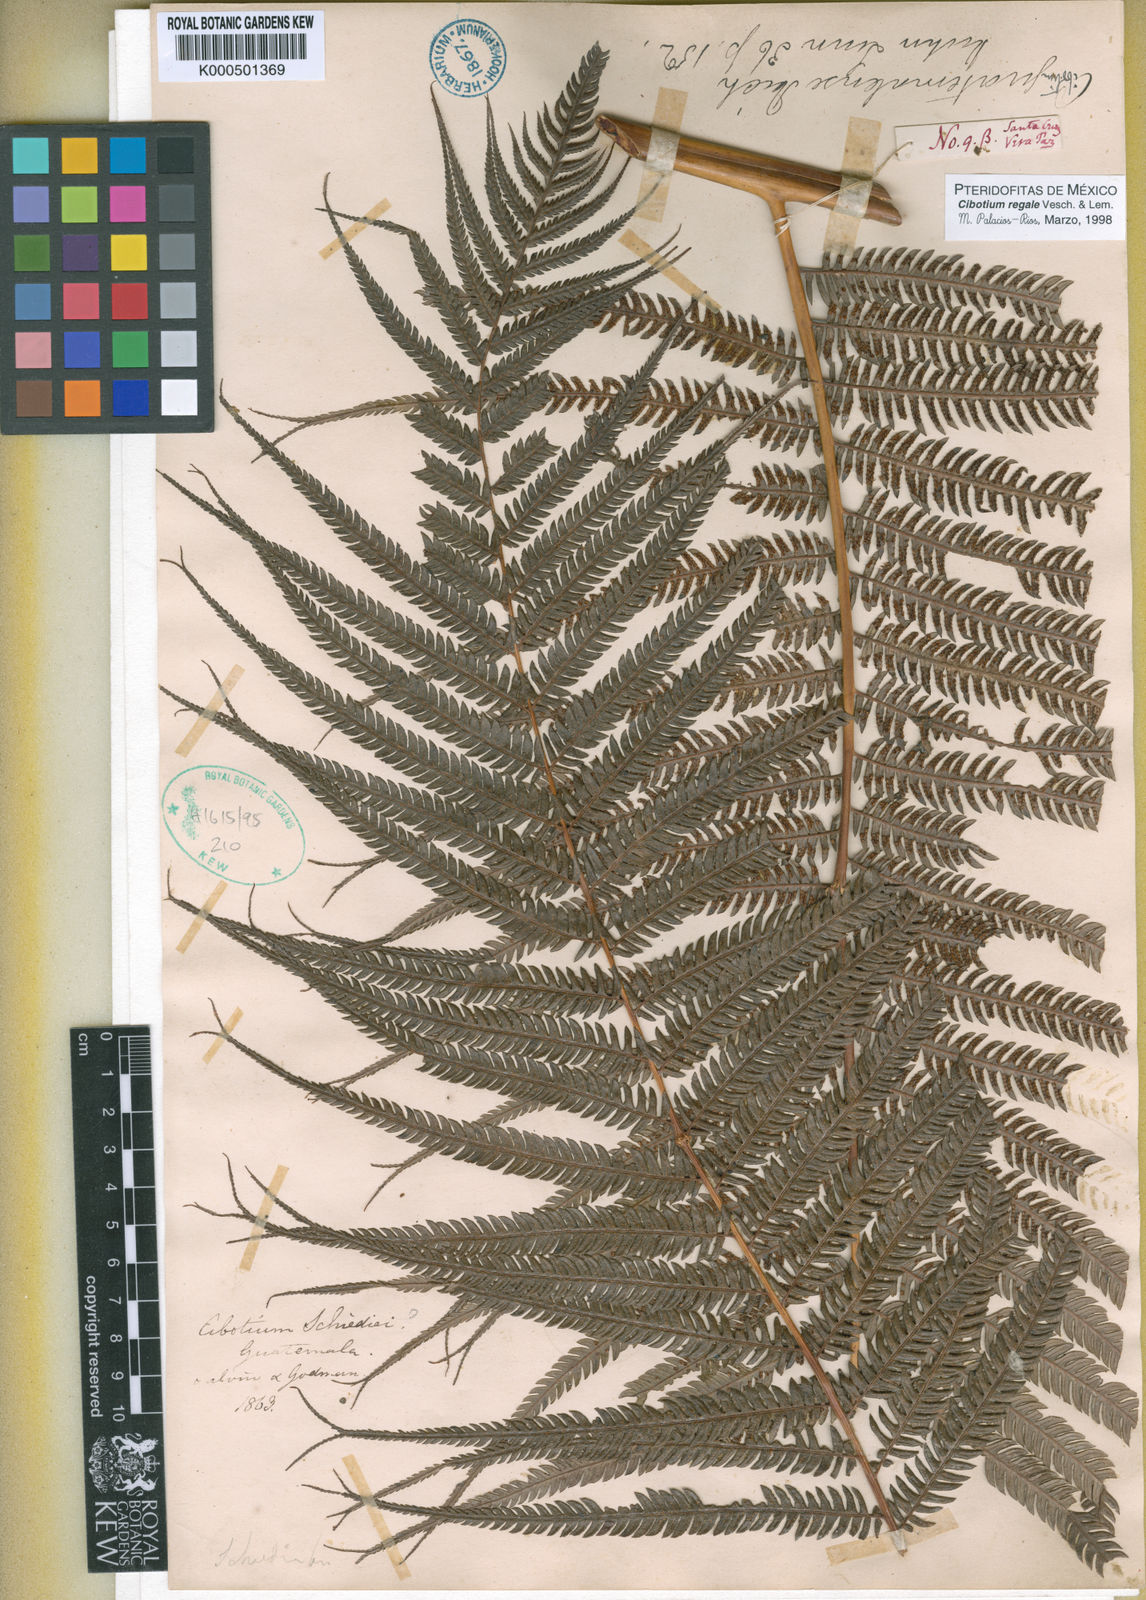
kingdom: Plantae
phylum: Tracheophyta
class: Polypodiopsida
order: Cyatheales
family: Cibotiaceae
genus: Cibotium
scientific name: Cibotium
